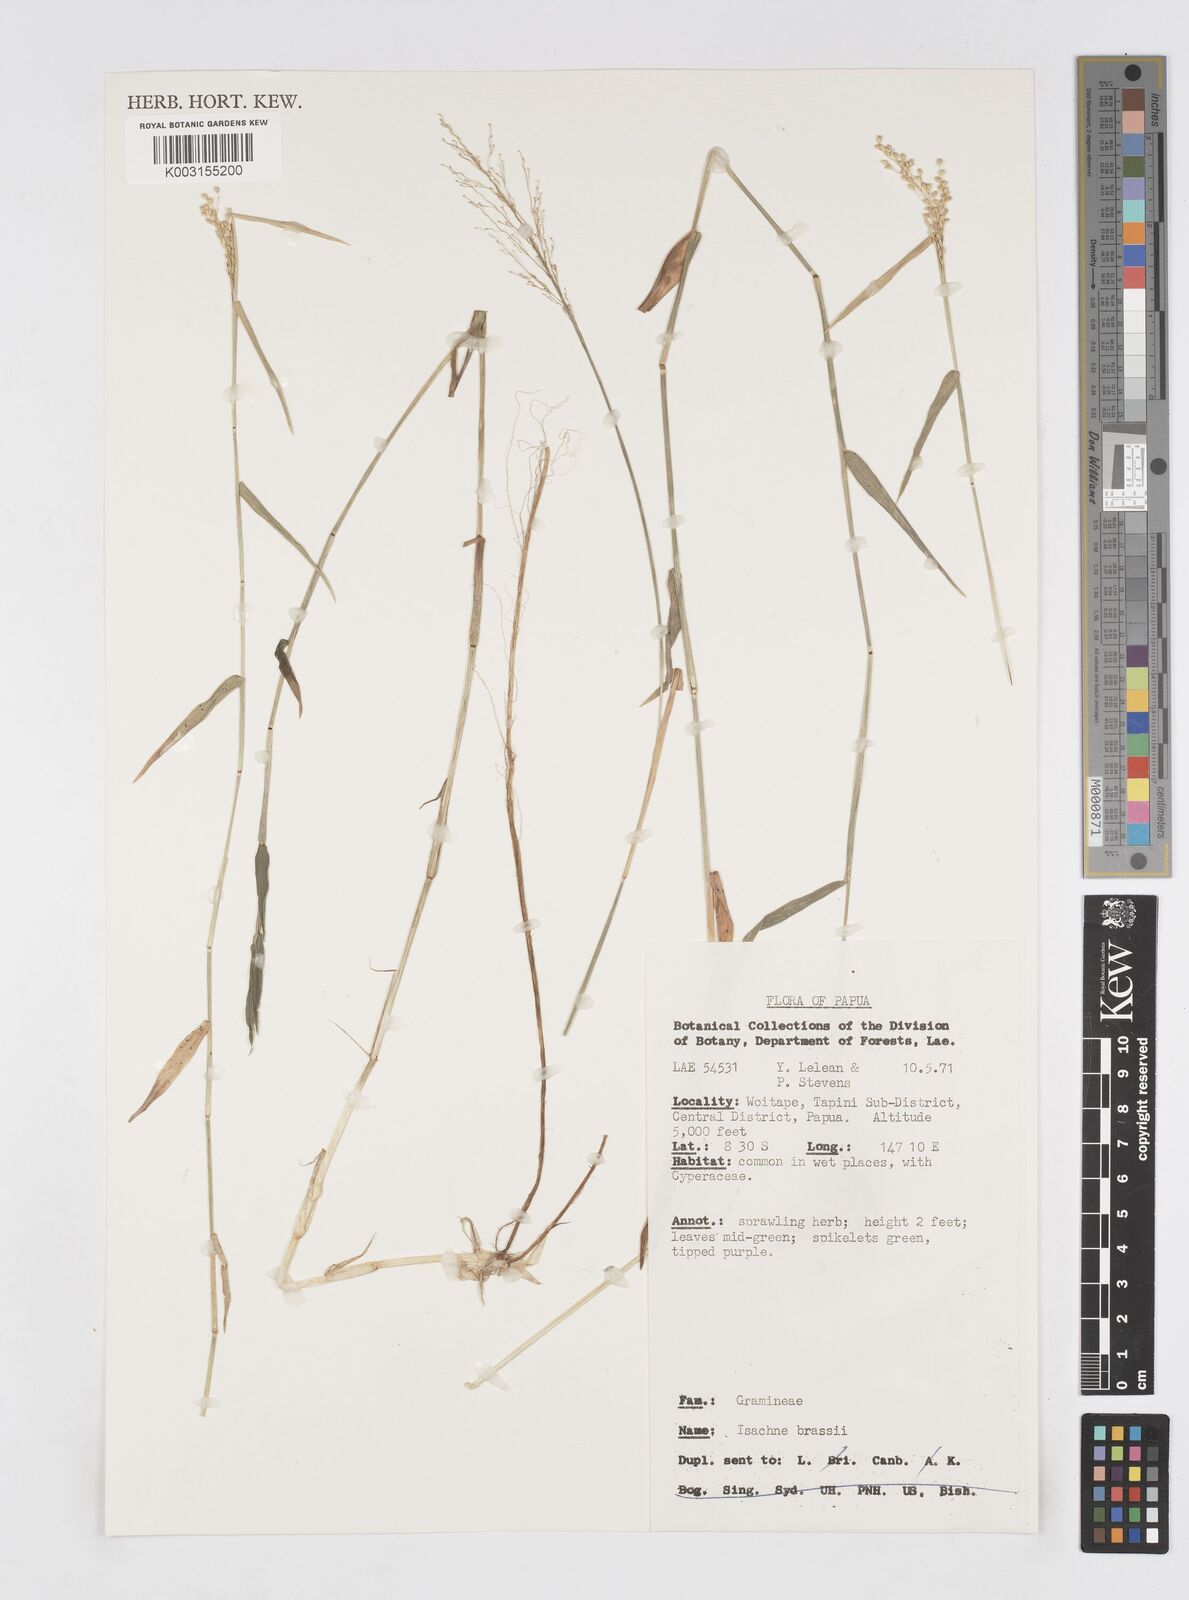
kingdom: Plantae
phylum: Tracheophyta
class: Liliopsida
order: Poales
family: Poaceae
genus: Isachne
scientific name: Isachne brassii
